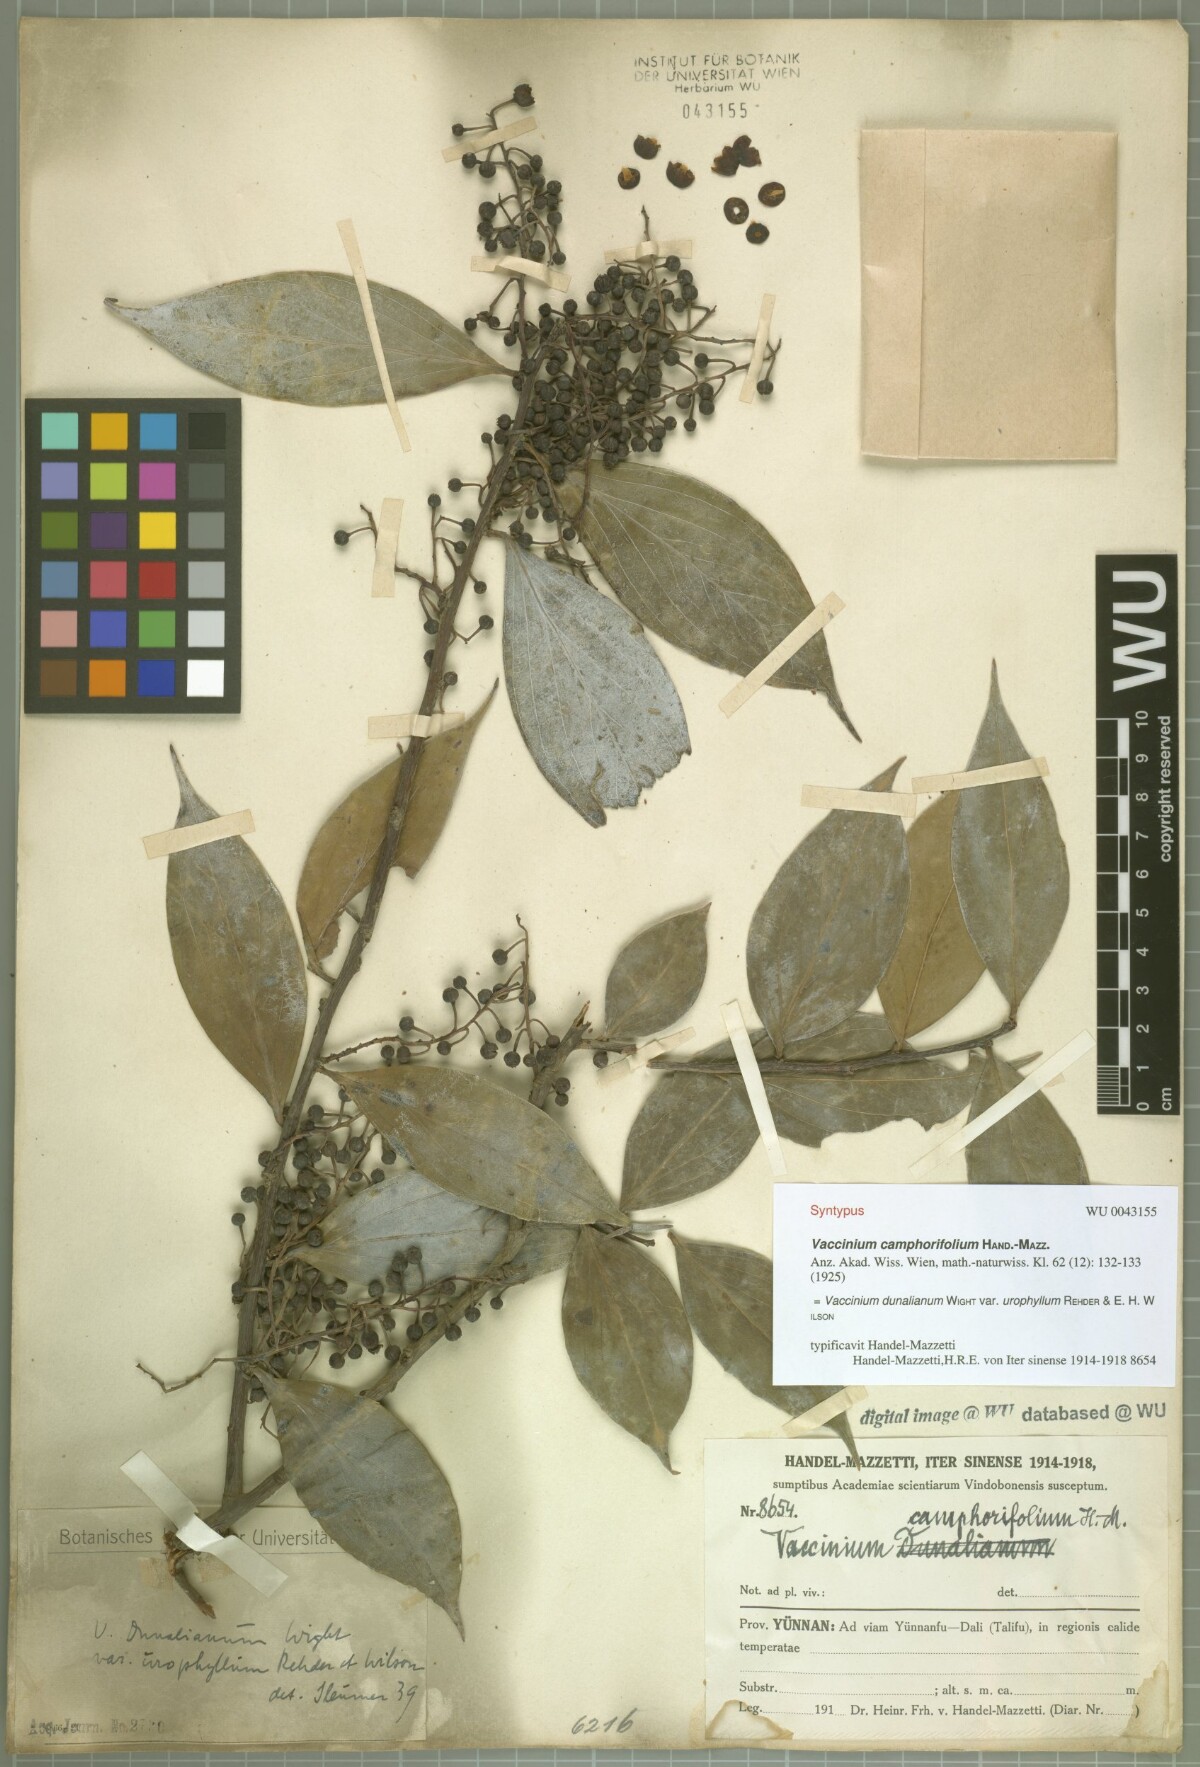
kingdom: Plantae
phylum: Tracheophyta
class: Magnoliopsida
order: Ericales
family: Ericaceae
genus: Vaccinium
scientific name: Vaccinium dunalianum
